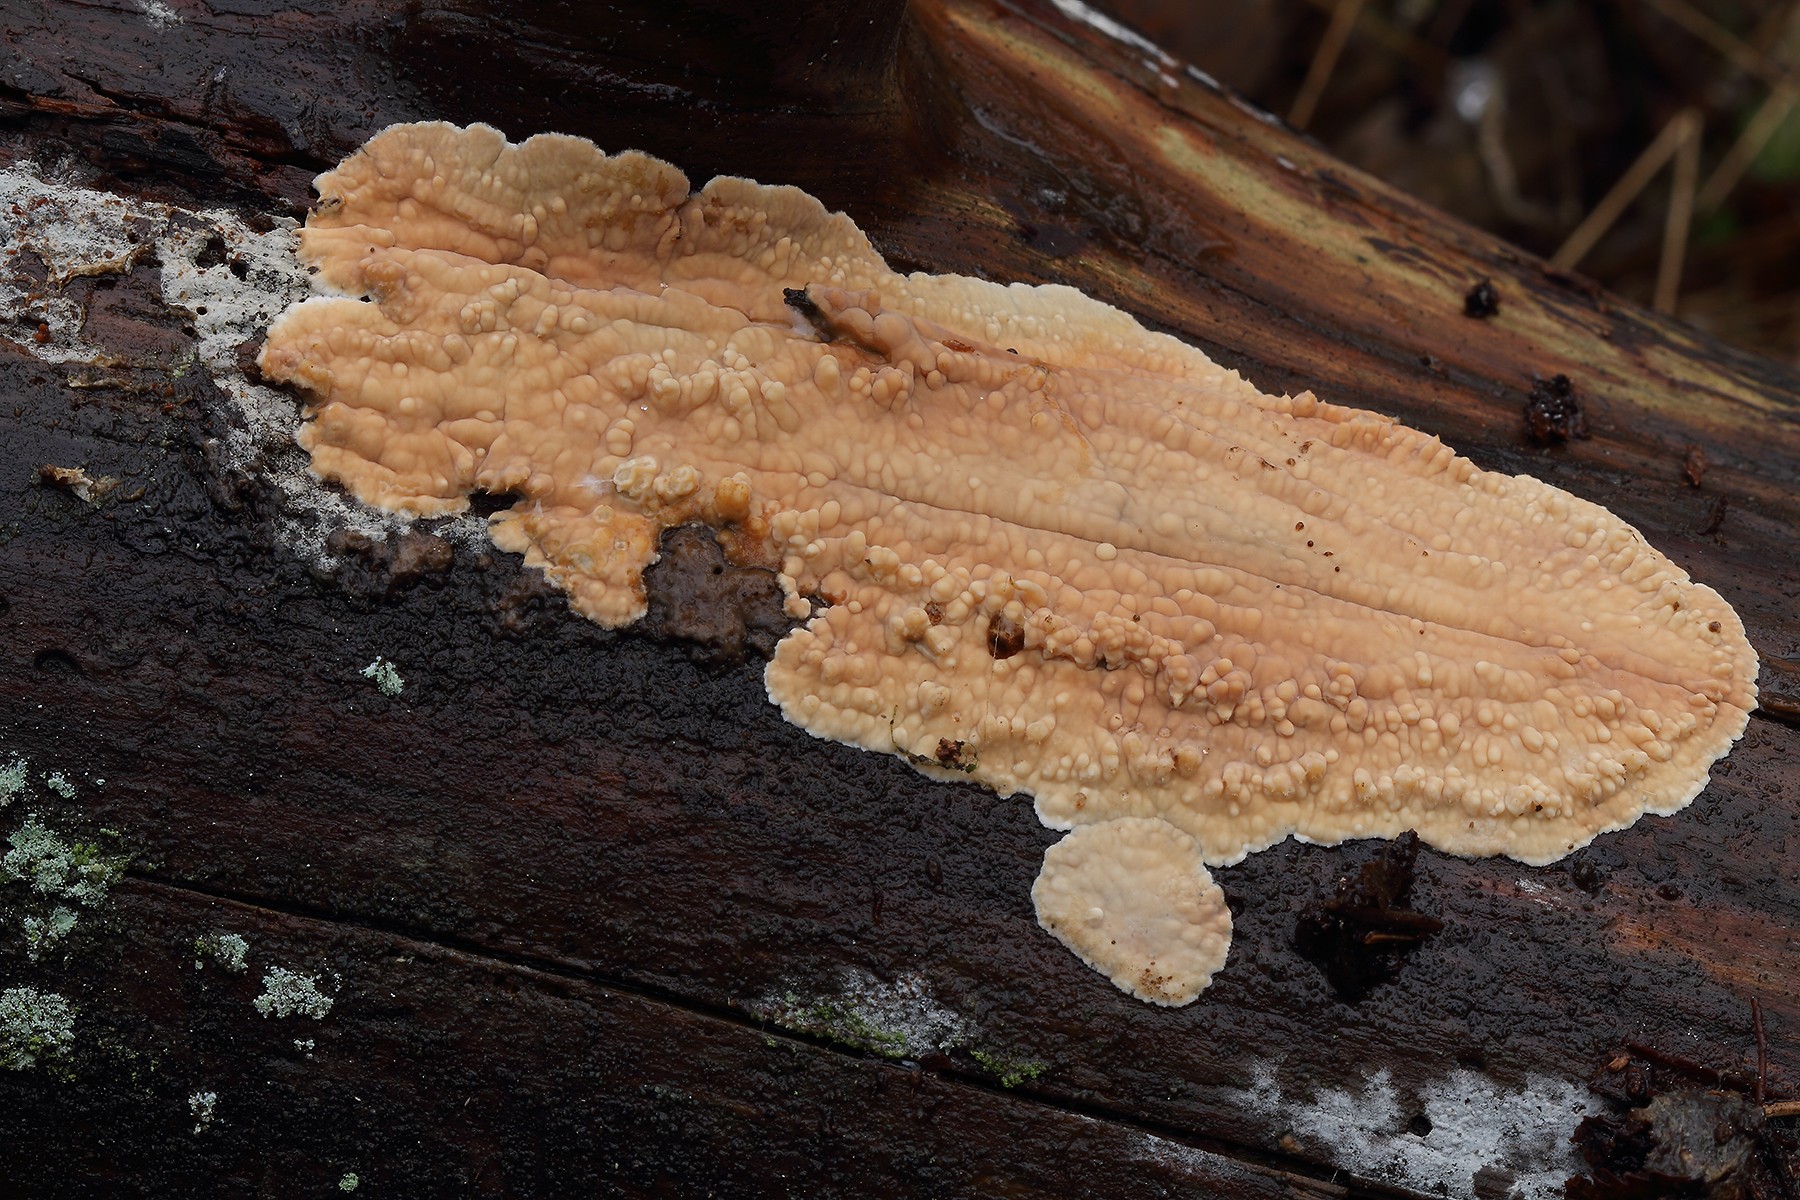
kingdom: Fungi
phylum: Basidiomycota
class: Agaricomycetes
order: Polyporales
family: Dacryobolaceae
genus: Dacryobolus
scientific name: Dacryobolus karstenii
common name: glat vulkanskorpe
